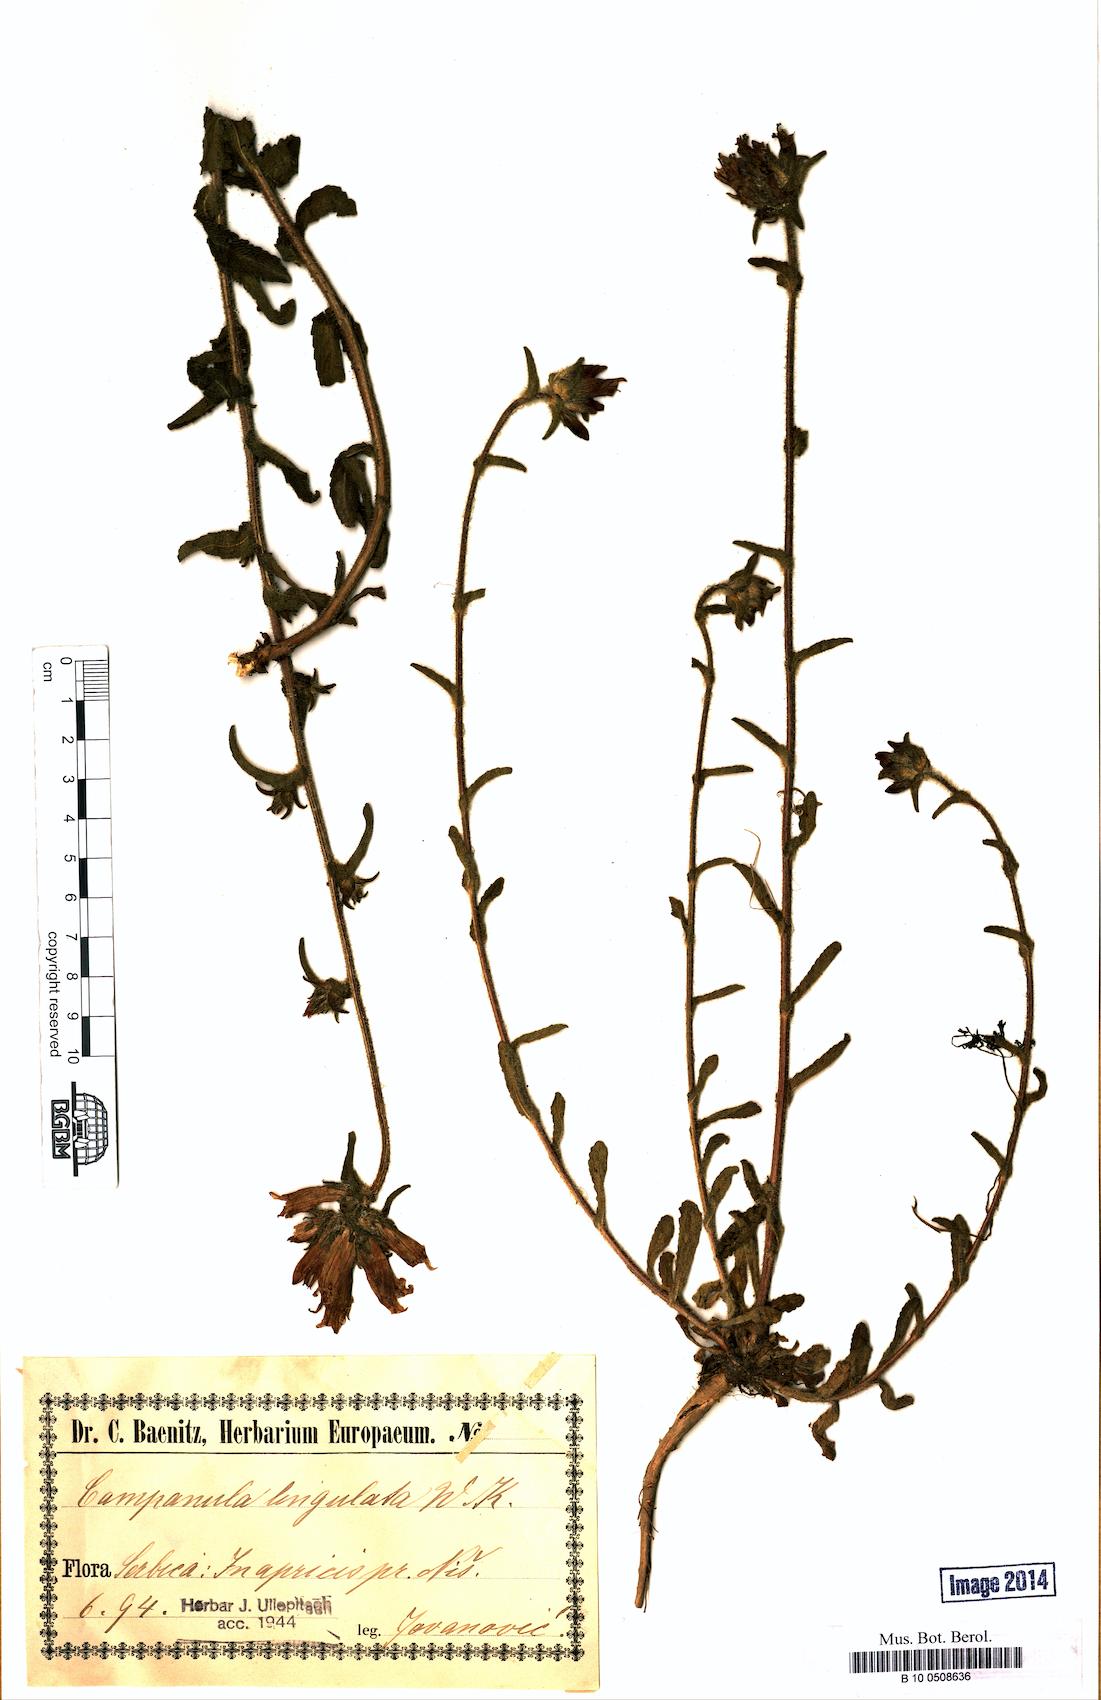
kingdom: Plantae
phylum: Tracheophyta
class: Magnoliopsida
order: Asterales
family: Campanulaceae
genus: Campanula
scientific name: Campanula lingulata
